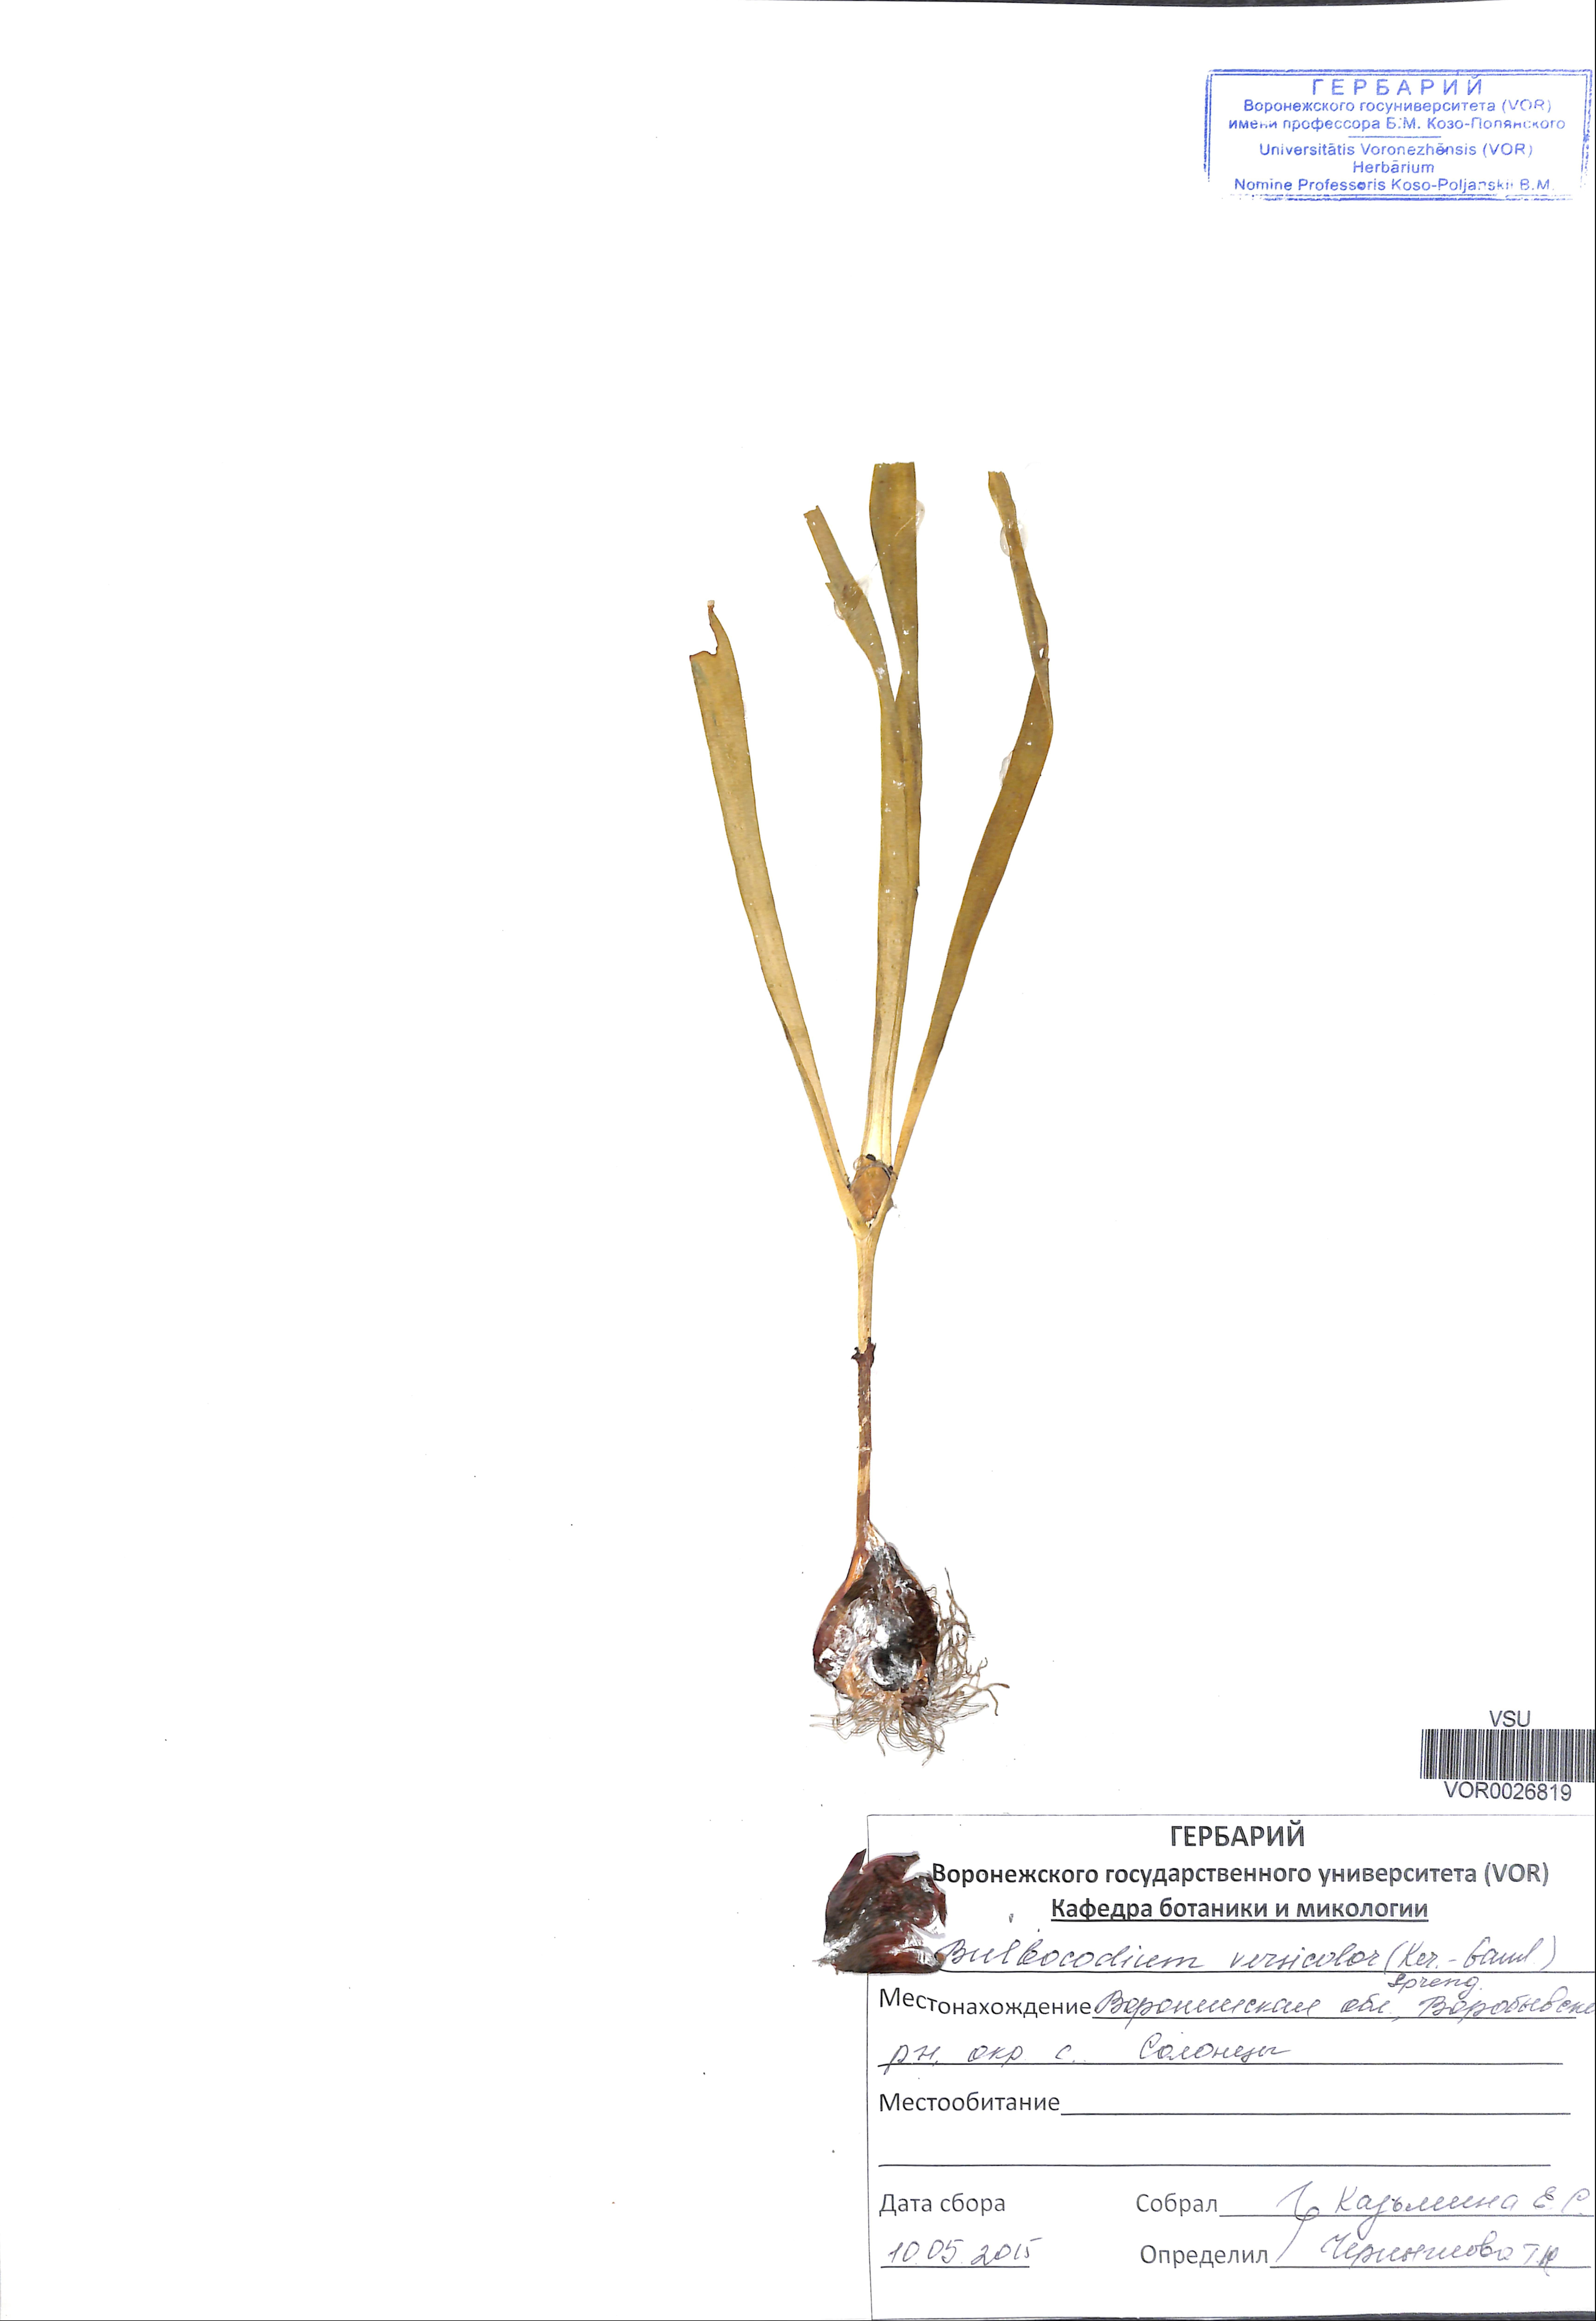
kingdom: Plantae
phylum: Tracheophyta
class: Liliopsida
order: Liliales
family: Colchicaceae
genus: Colchicum
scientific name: Colchicum bulbocodium
